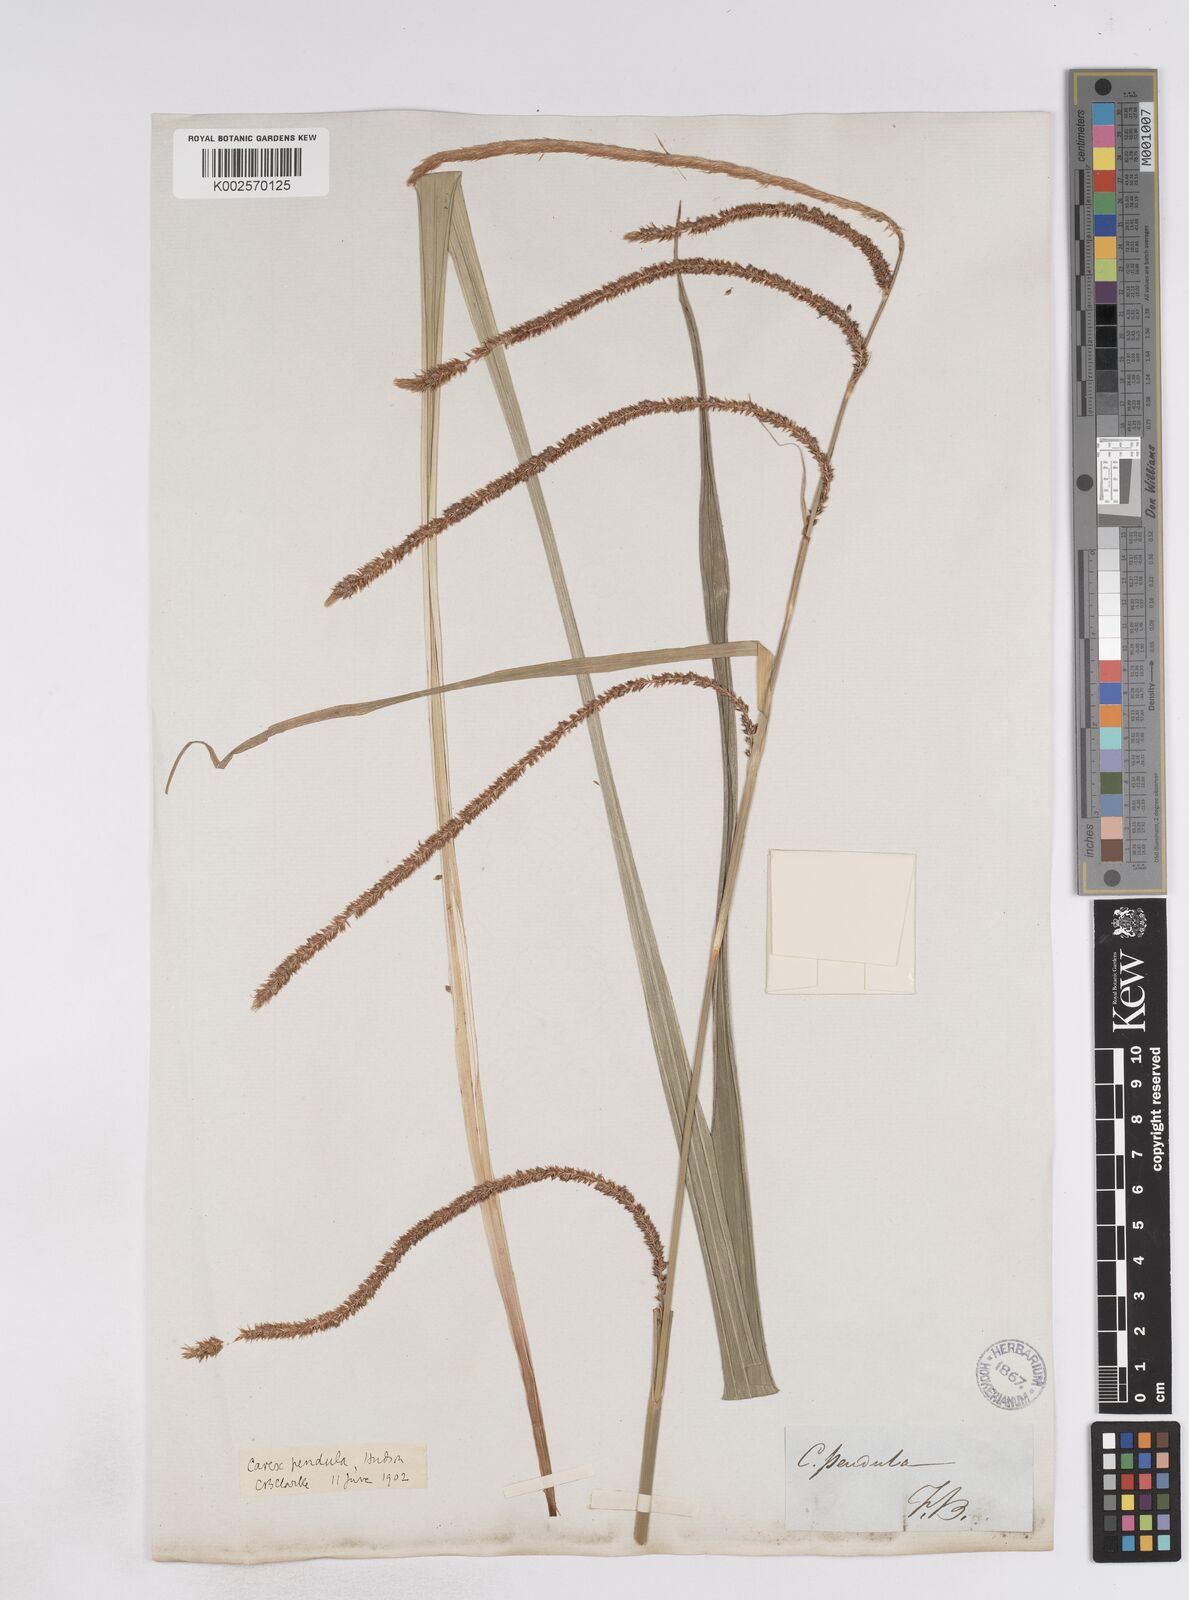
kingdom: Plantae
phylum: Tracheophyta
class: Liliopsida
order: Poales
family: Cyperaceae
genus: Carex
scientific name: Carex pendula
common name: Pendulous sedge
